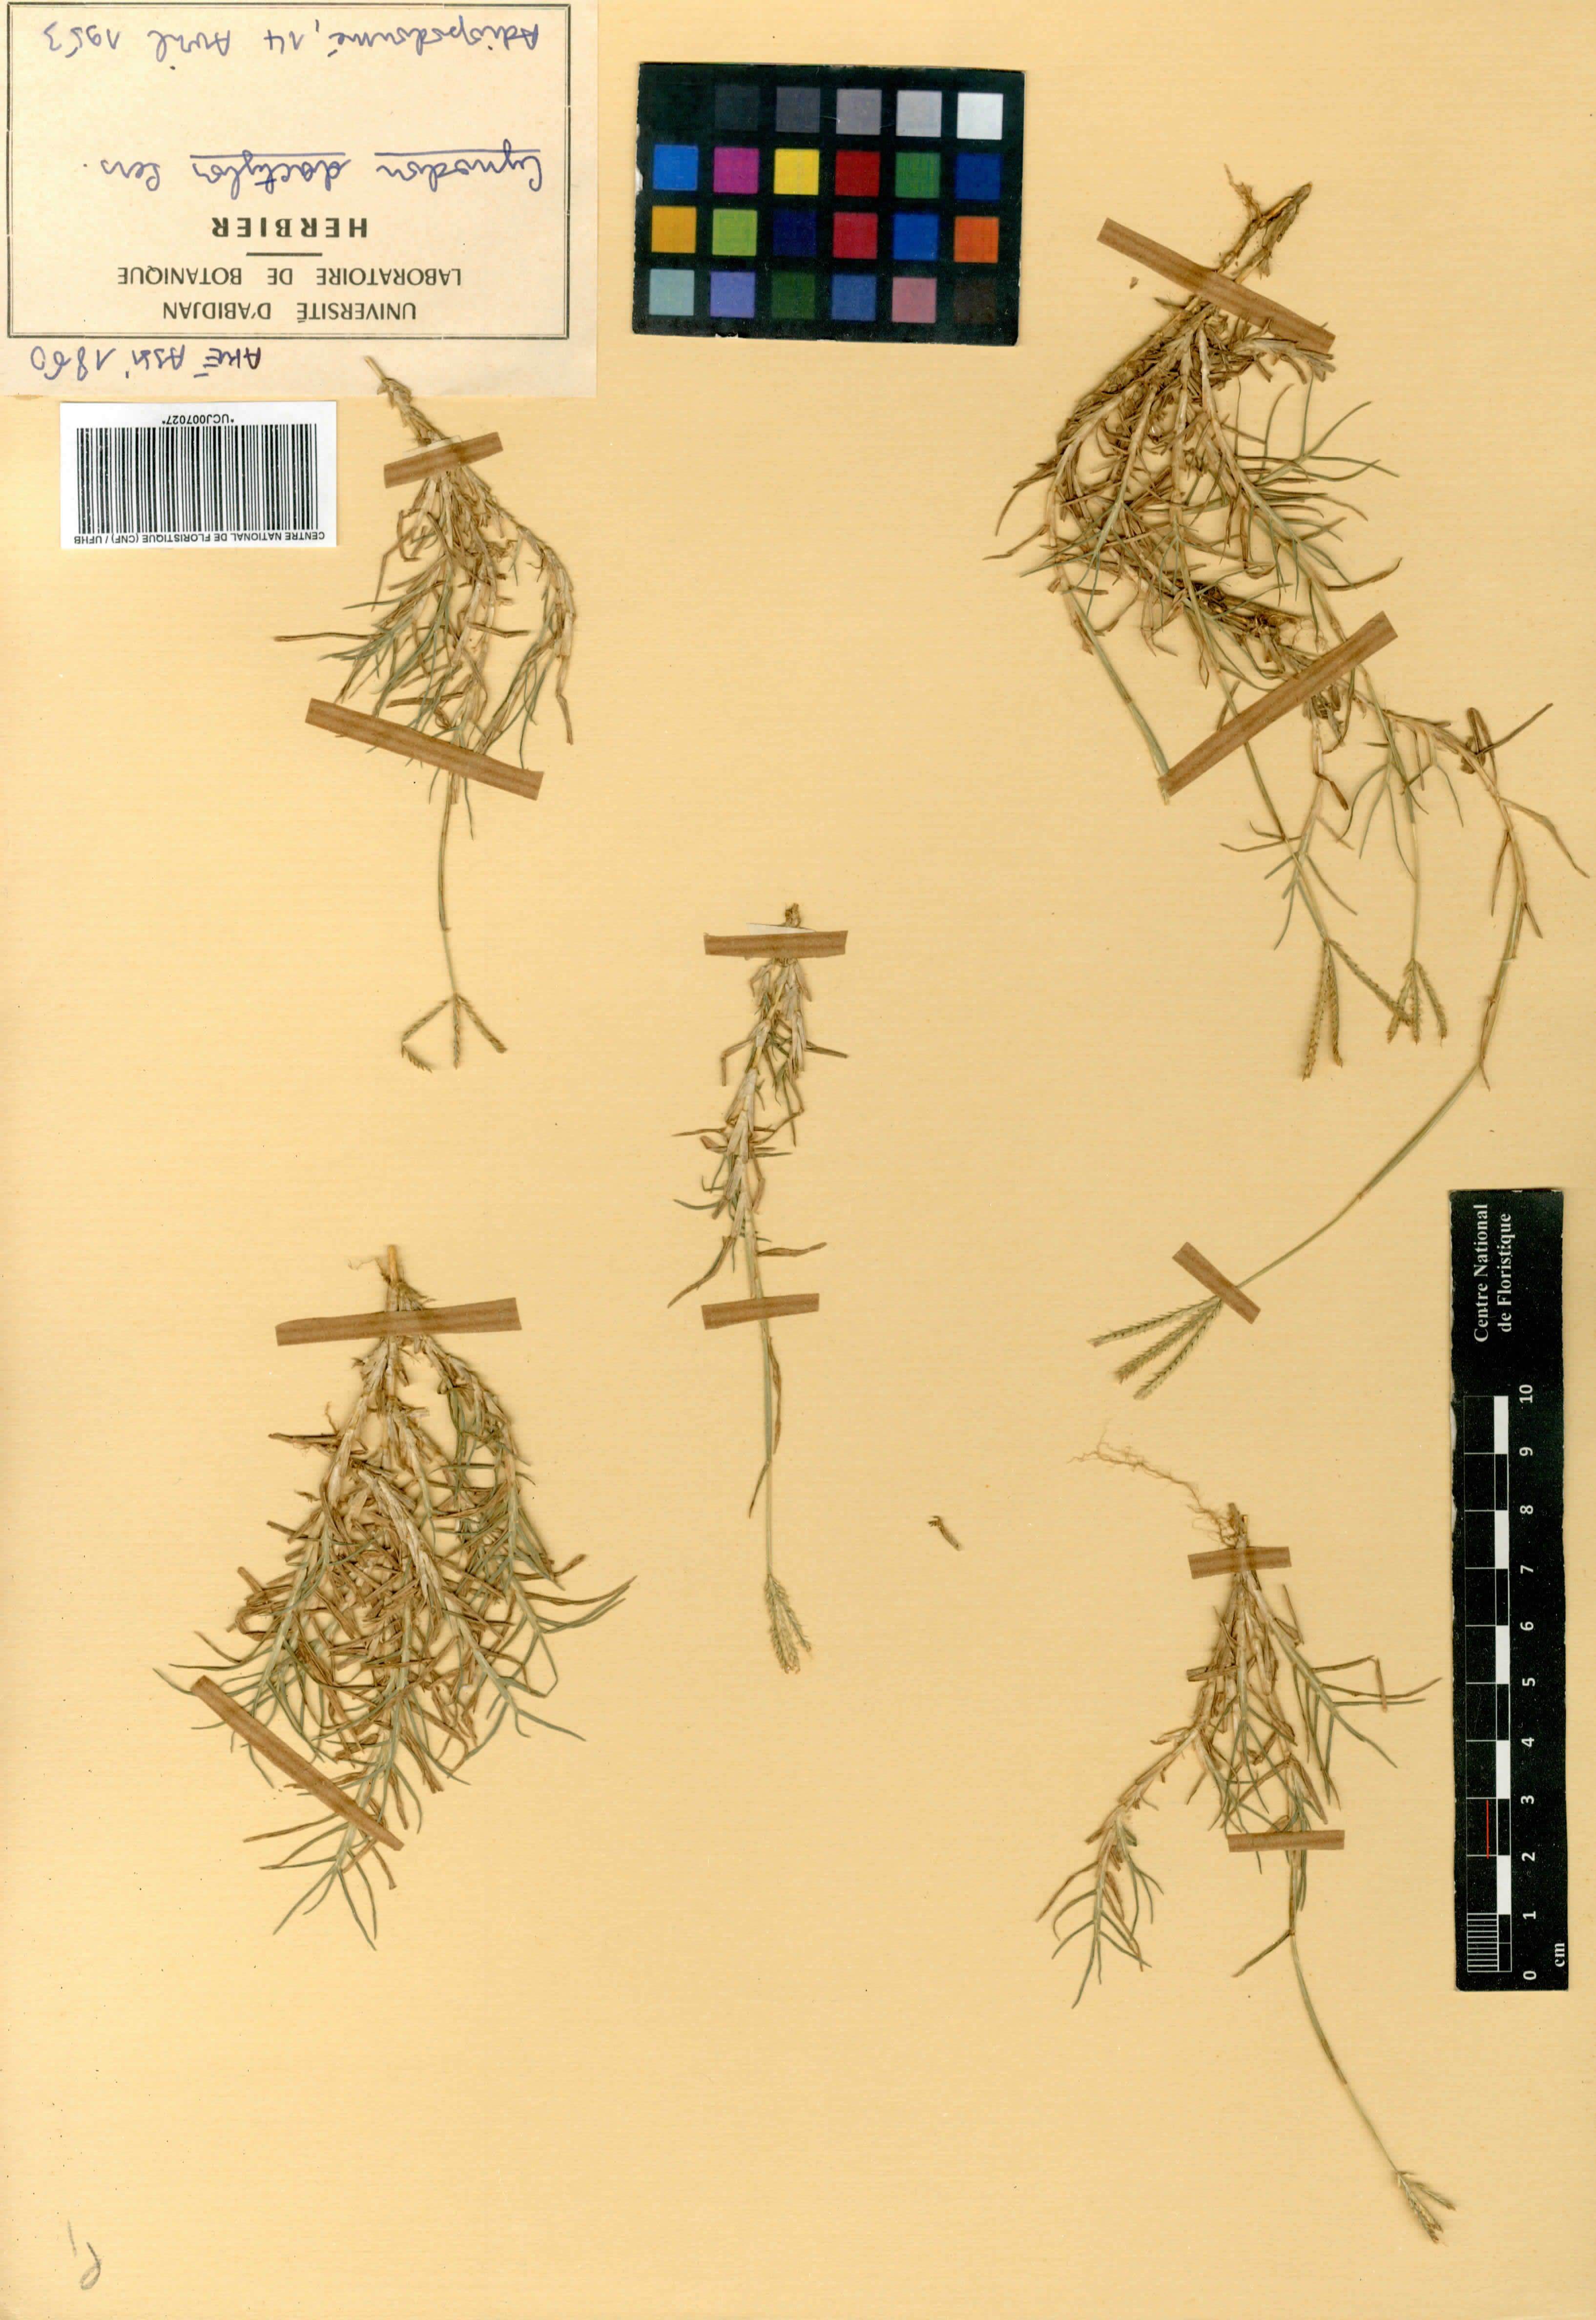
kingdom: Plantae
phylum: Tracheophyta
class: Liliopsida
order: Poales
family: Poaceae
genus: Cynodon
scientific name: Cynodon dactylon
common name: Bermuda grass
